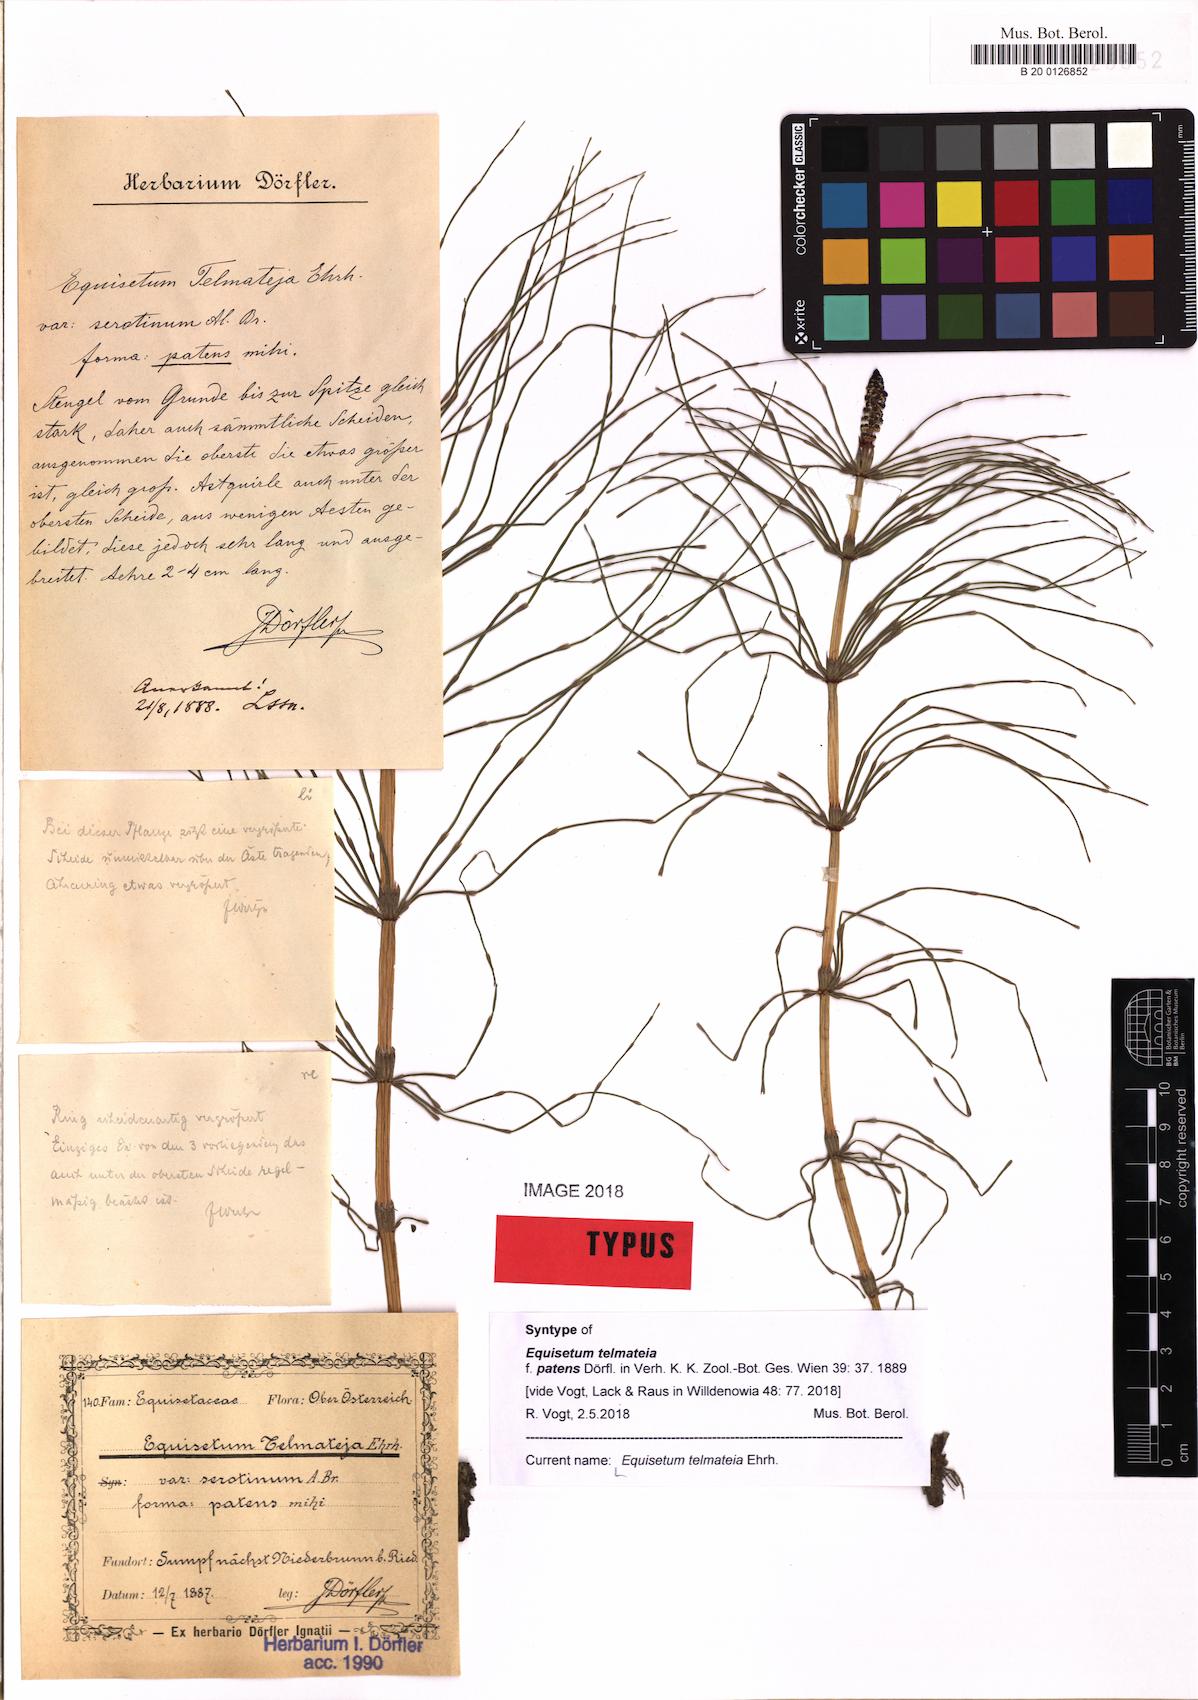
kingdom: Plantae
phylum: Tracheophyta
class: Polypodiopsida
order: Equisetales
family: Equisetaceae
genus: Equisetum
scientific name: Equisetum telmateia
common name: Great horsetail
